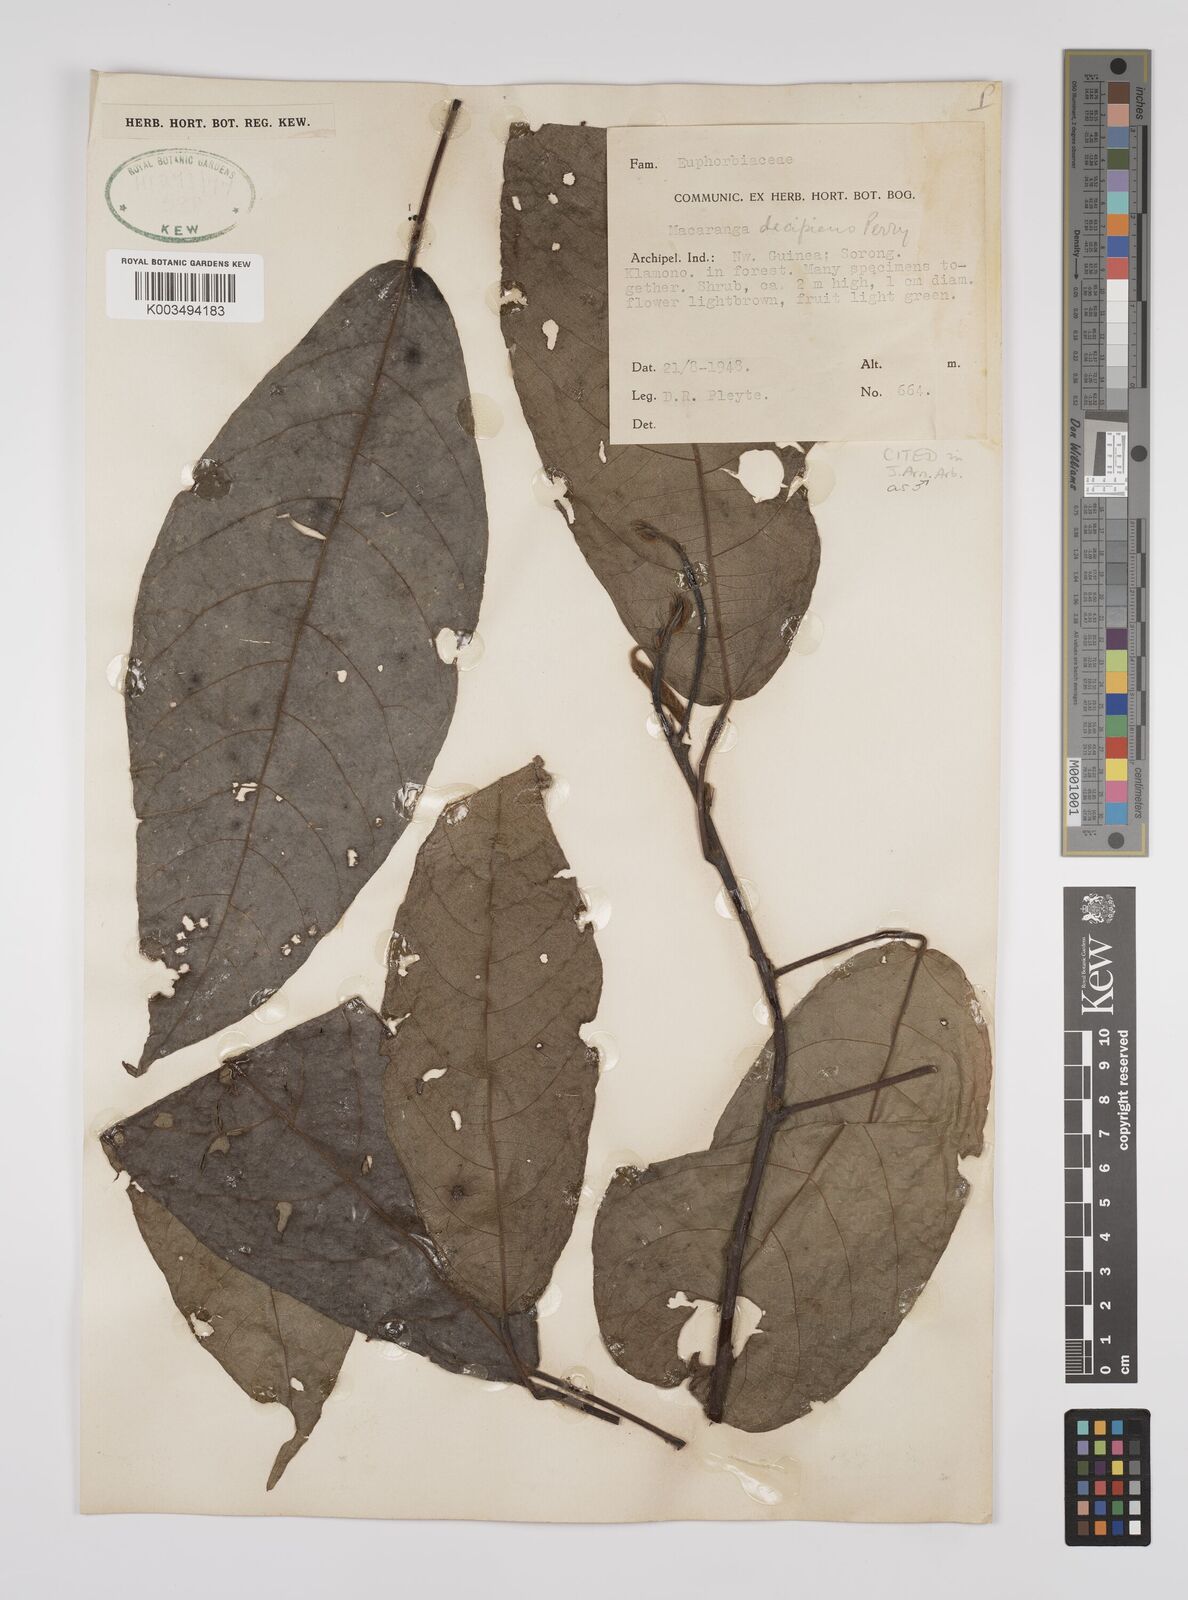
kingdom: Plantae
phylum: Tracheophyta
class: Magnoliopsida
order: Malpighiales
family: Euphorbiaceae
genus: Macaranga
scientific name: Macaranga decipiens
